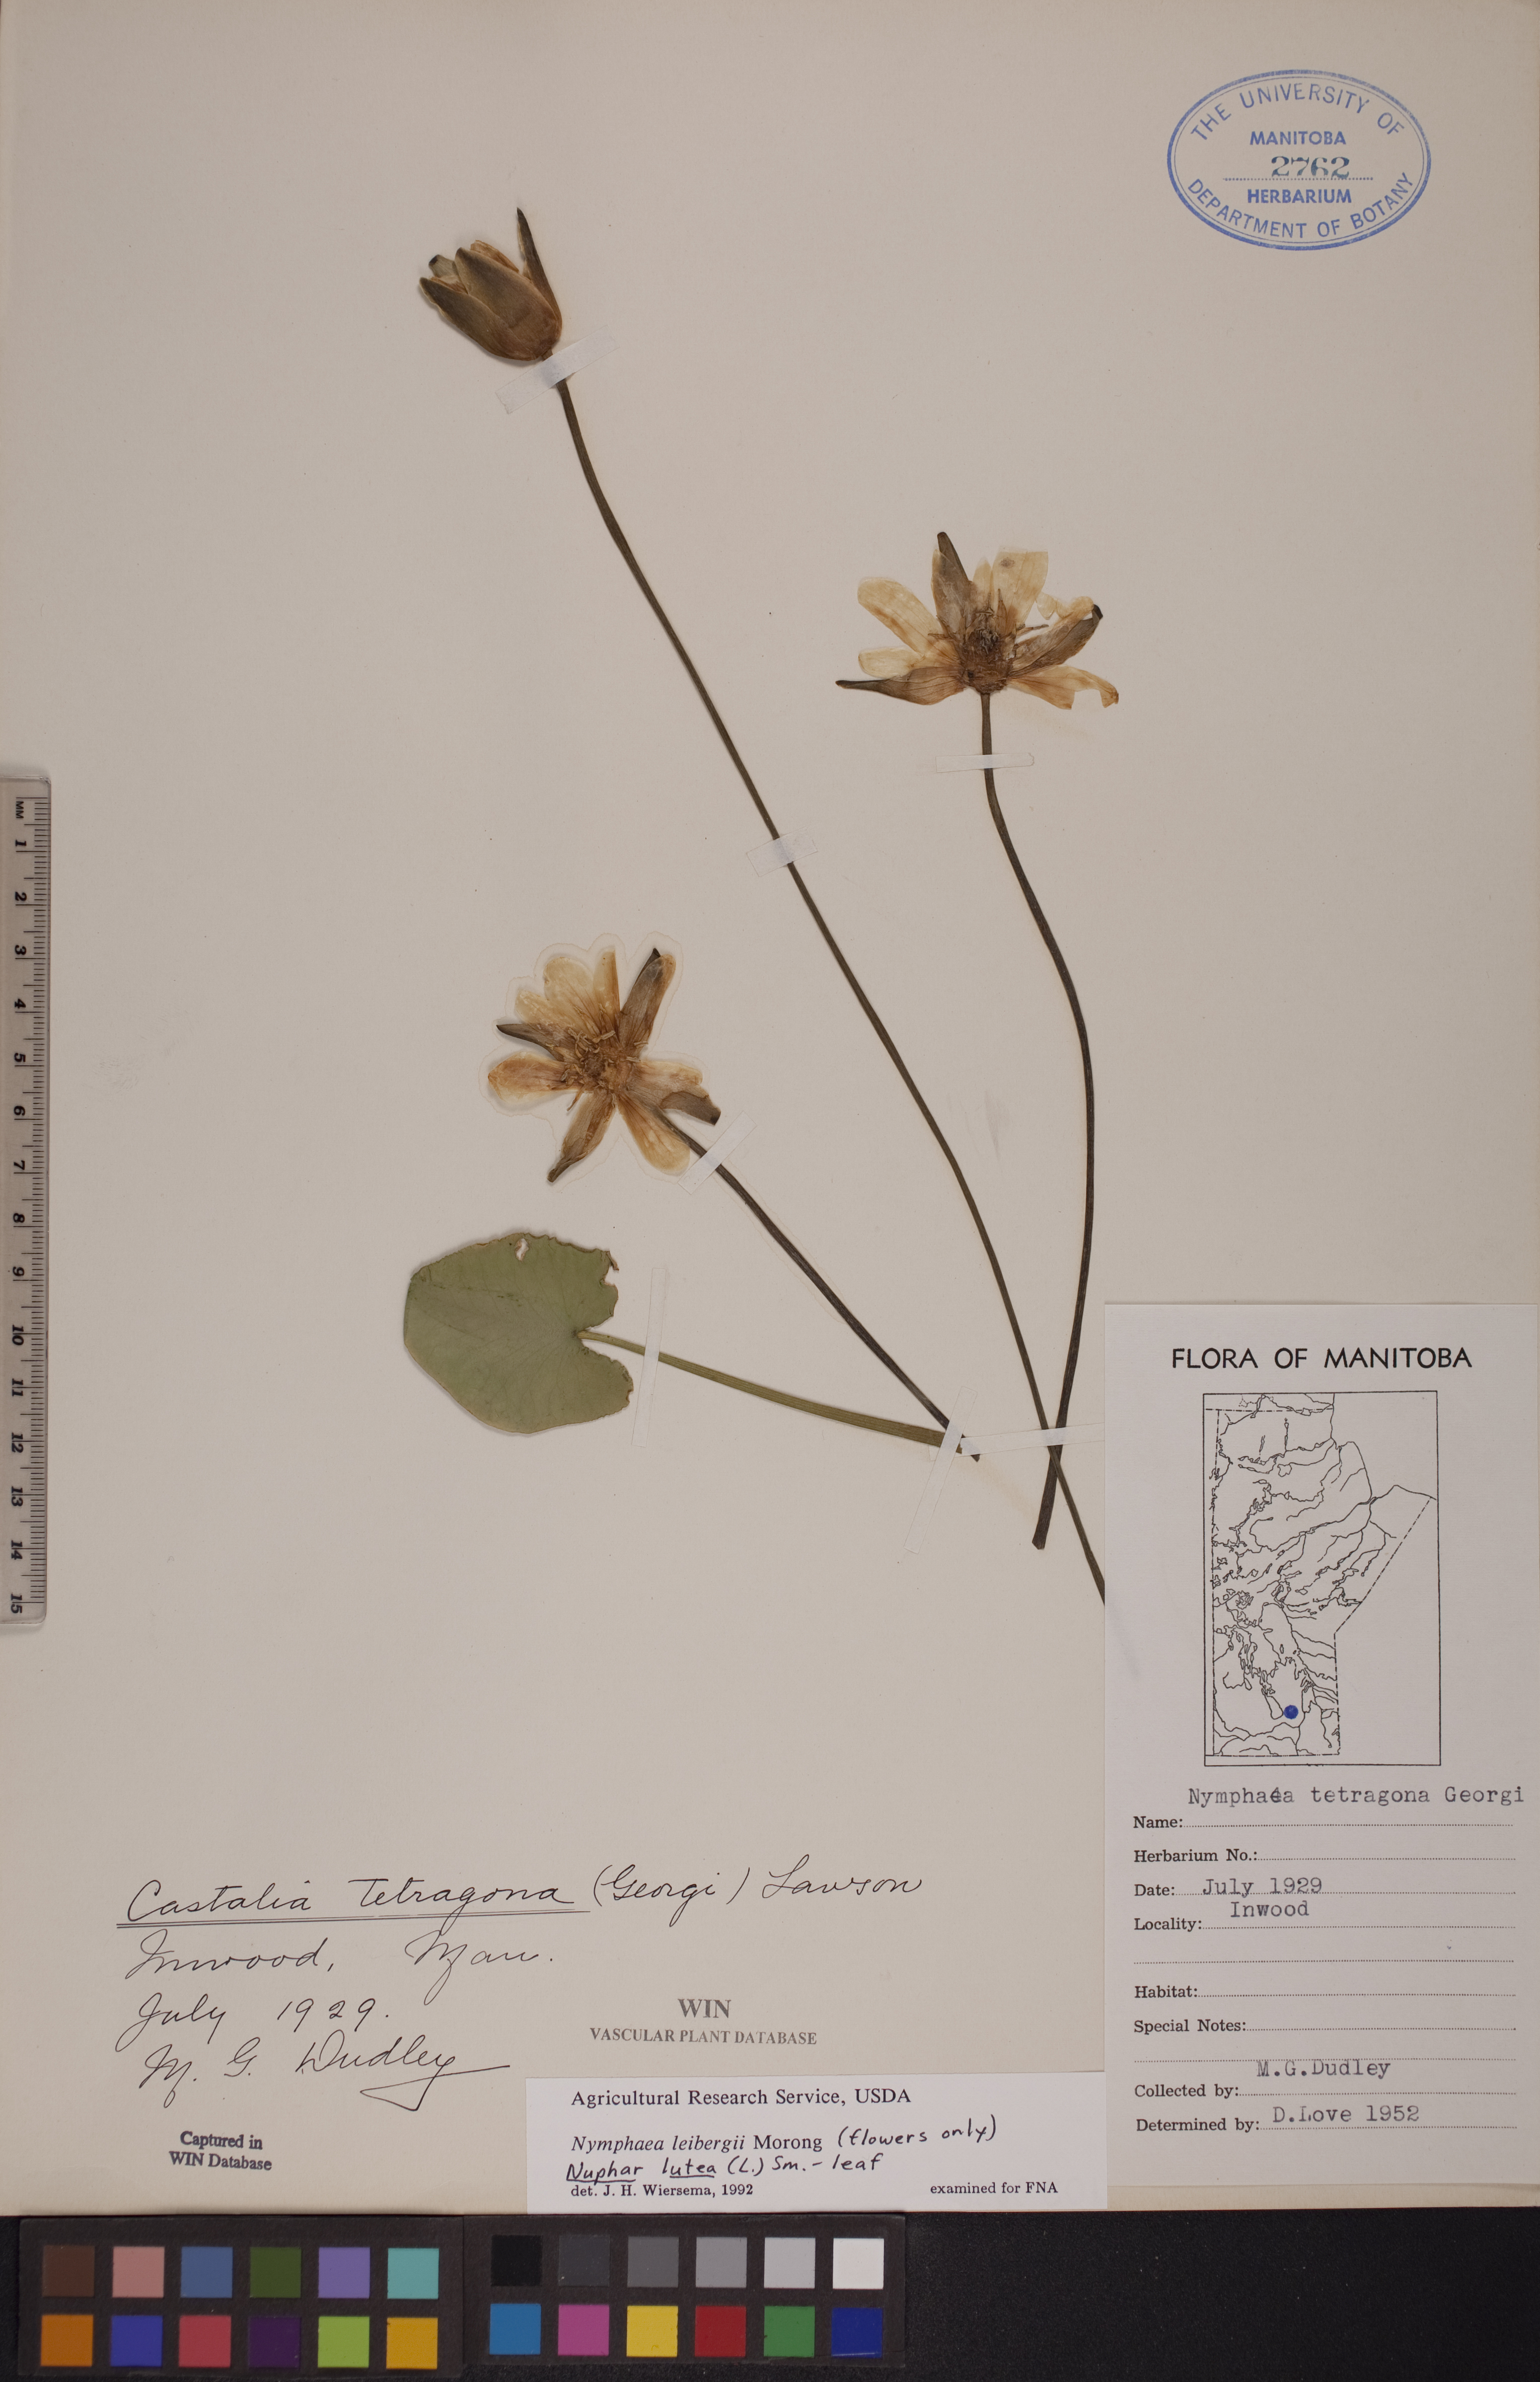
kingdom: Plantae
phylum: Tracheophyta
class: Magnoliopsida
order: Nymphaeales
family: Nymphaeaceae
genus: Nymphaea
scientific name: Nymphaea leibergii
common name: Dwarf water-lily
